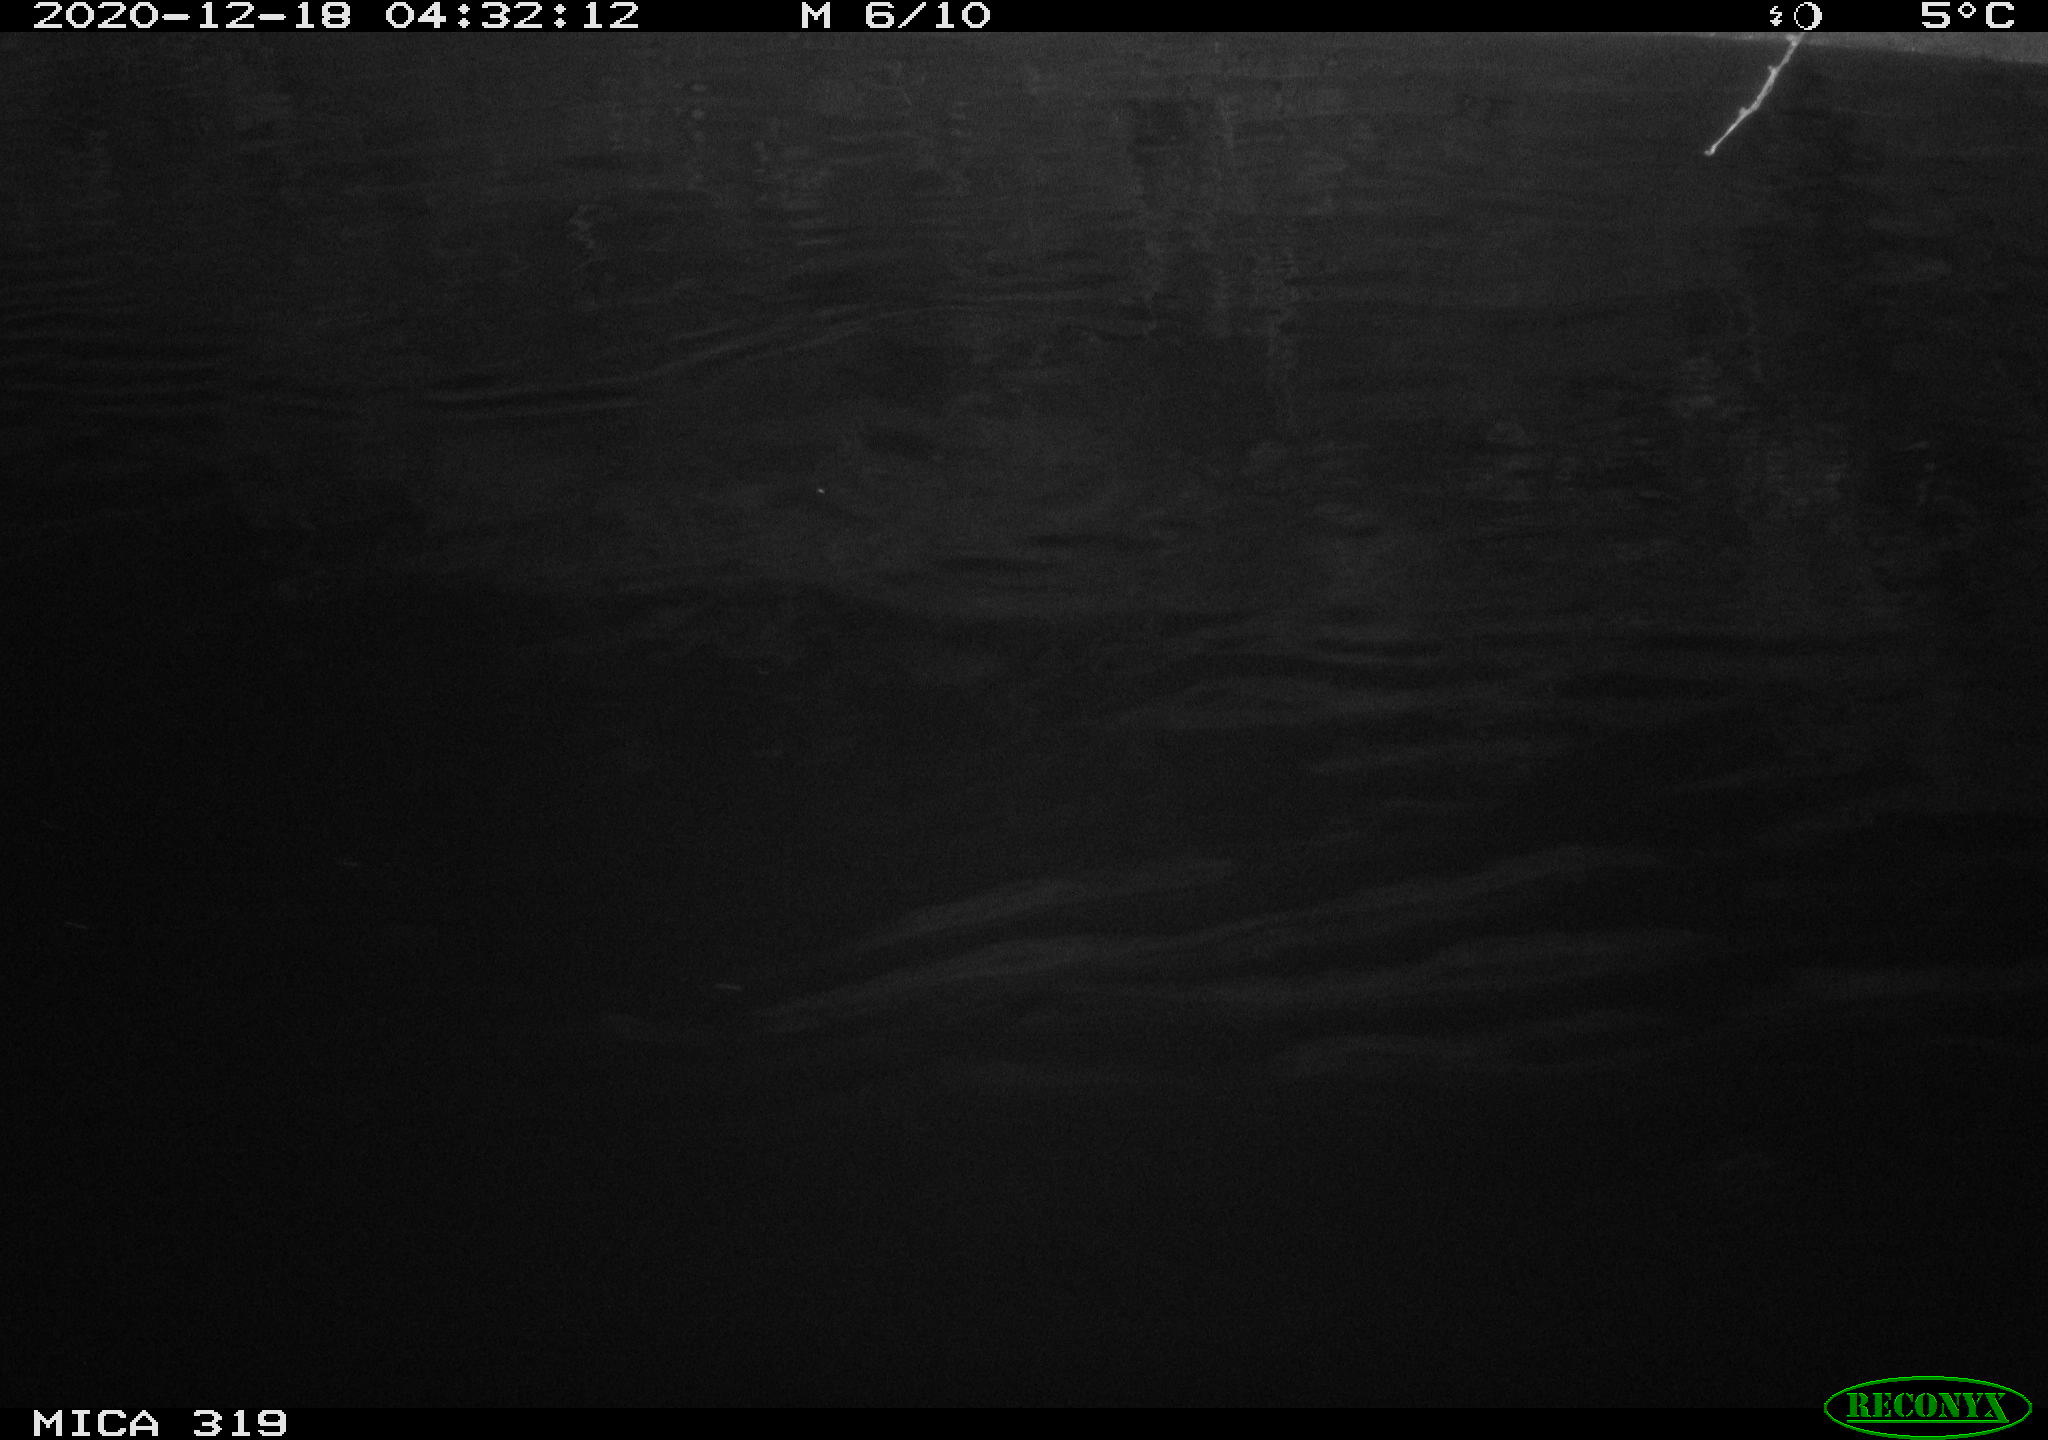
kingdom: Animalia
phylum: Chordata
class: Aves
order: Anseriformes
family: Anatidae
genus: Anas
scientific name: Anas platyrhynchos
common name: Mallard
